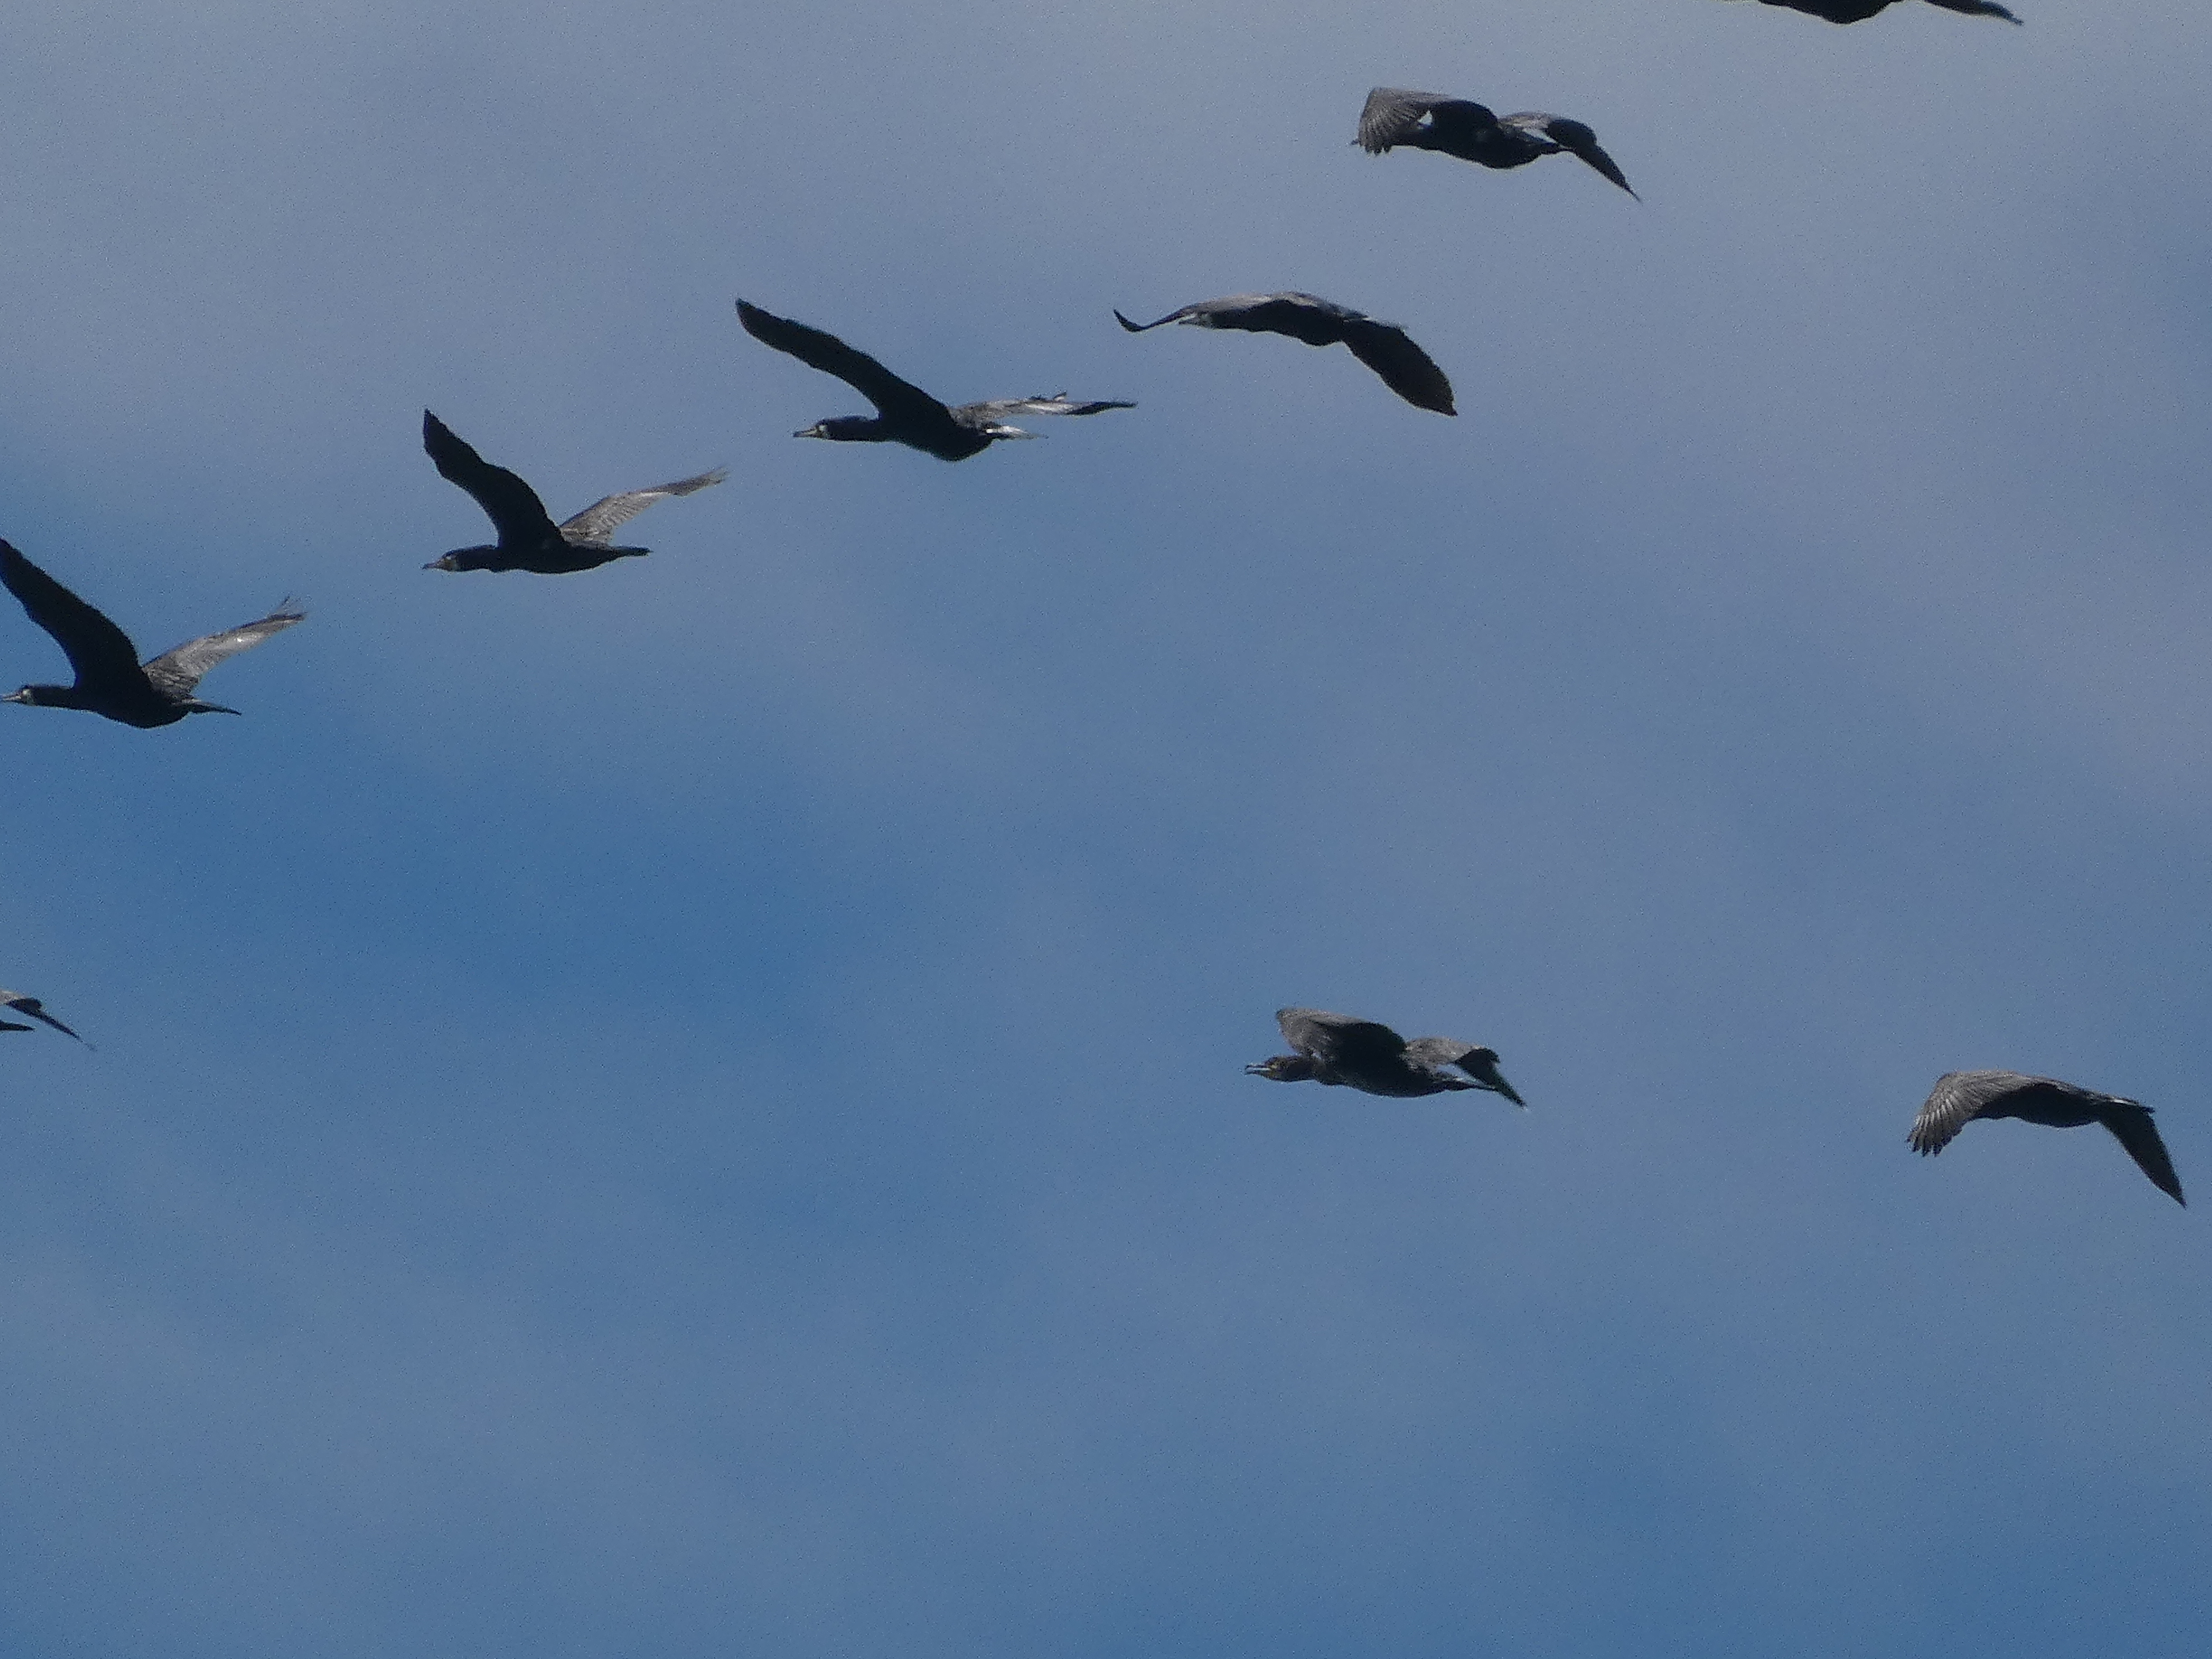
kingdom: Animalia
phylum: Chordata
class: Aves
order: Suliformes
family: Phalacrocoracidae
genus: Phalacrocorax
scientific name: Phalacrocorax carbo
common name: Skarv
